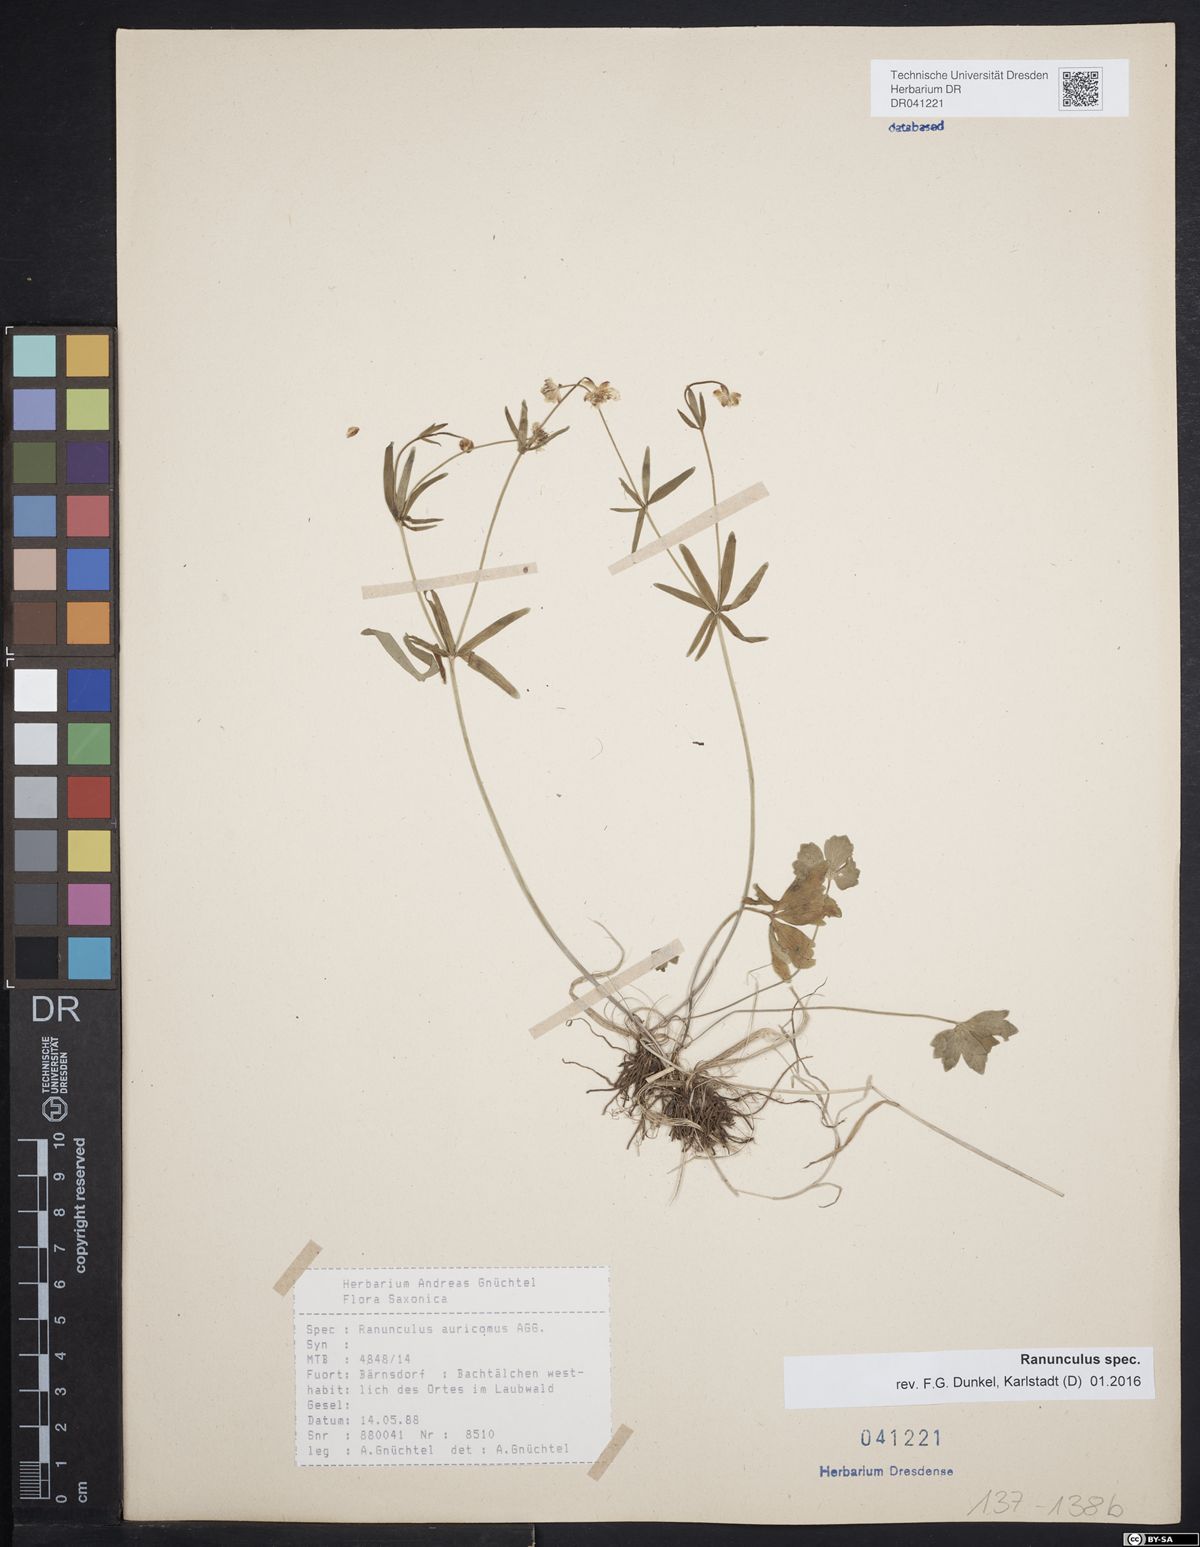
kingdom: Plantae
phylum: Tracheophyta
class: Magnoliopsida
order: Ranunculales
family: Ranunculaceae
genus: Ranunculus
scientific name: Ranunculus auricomus
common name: Goldilocks buttercup
